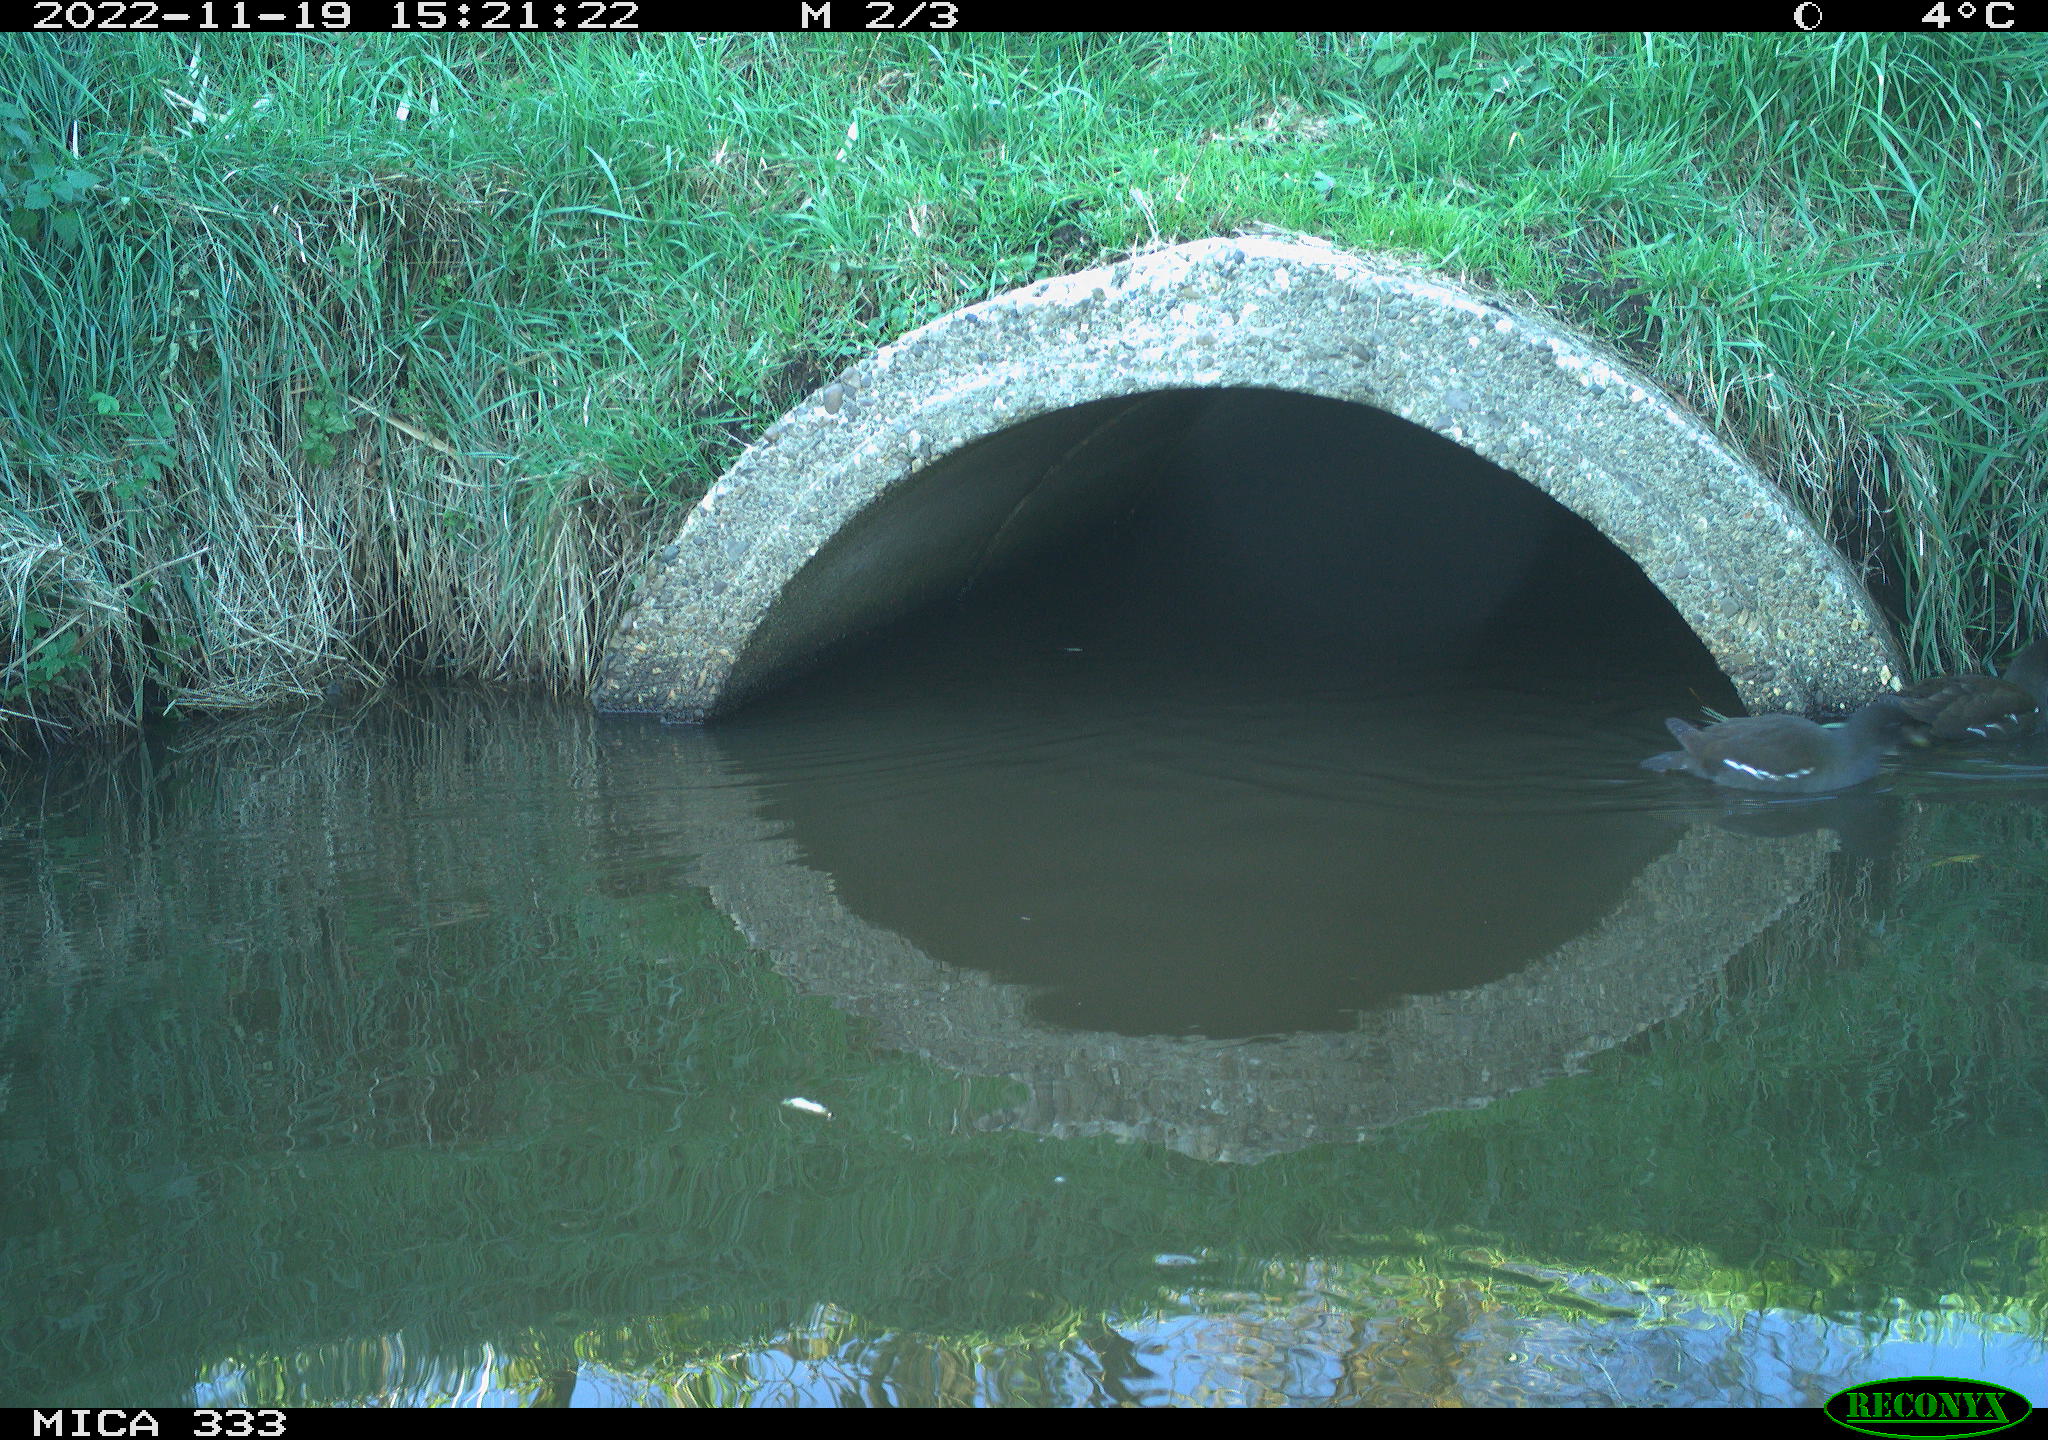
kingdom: Animalia
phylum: Chordata
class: Aves
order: Gruiformes
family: Rallidae
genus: Gallinula
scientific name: Gallinula chloropus
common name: Common moorhen
